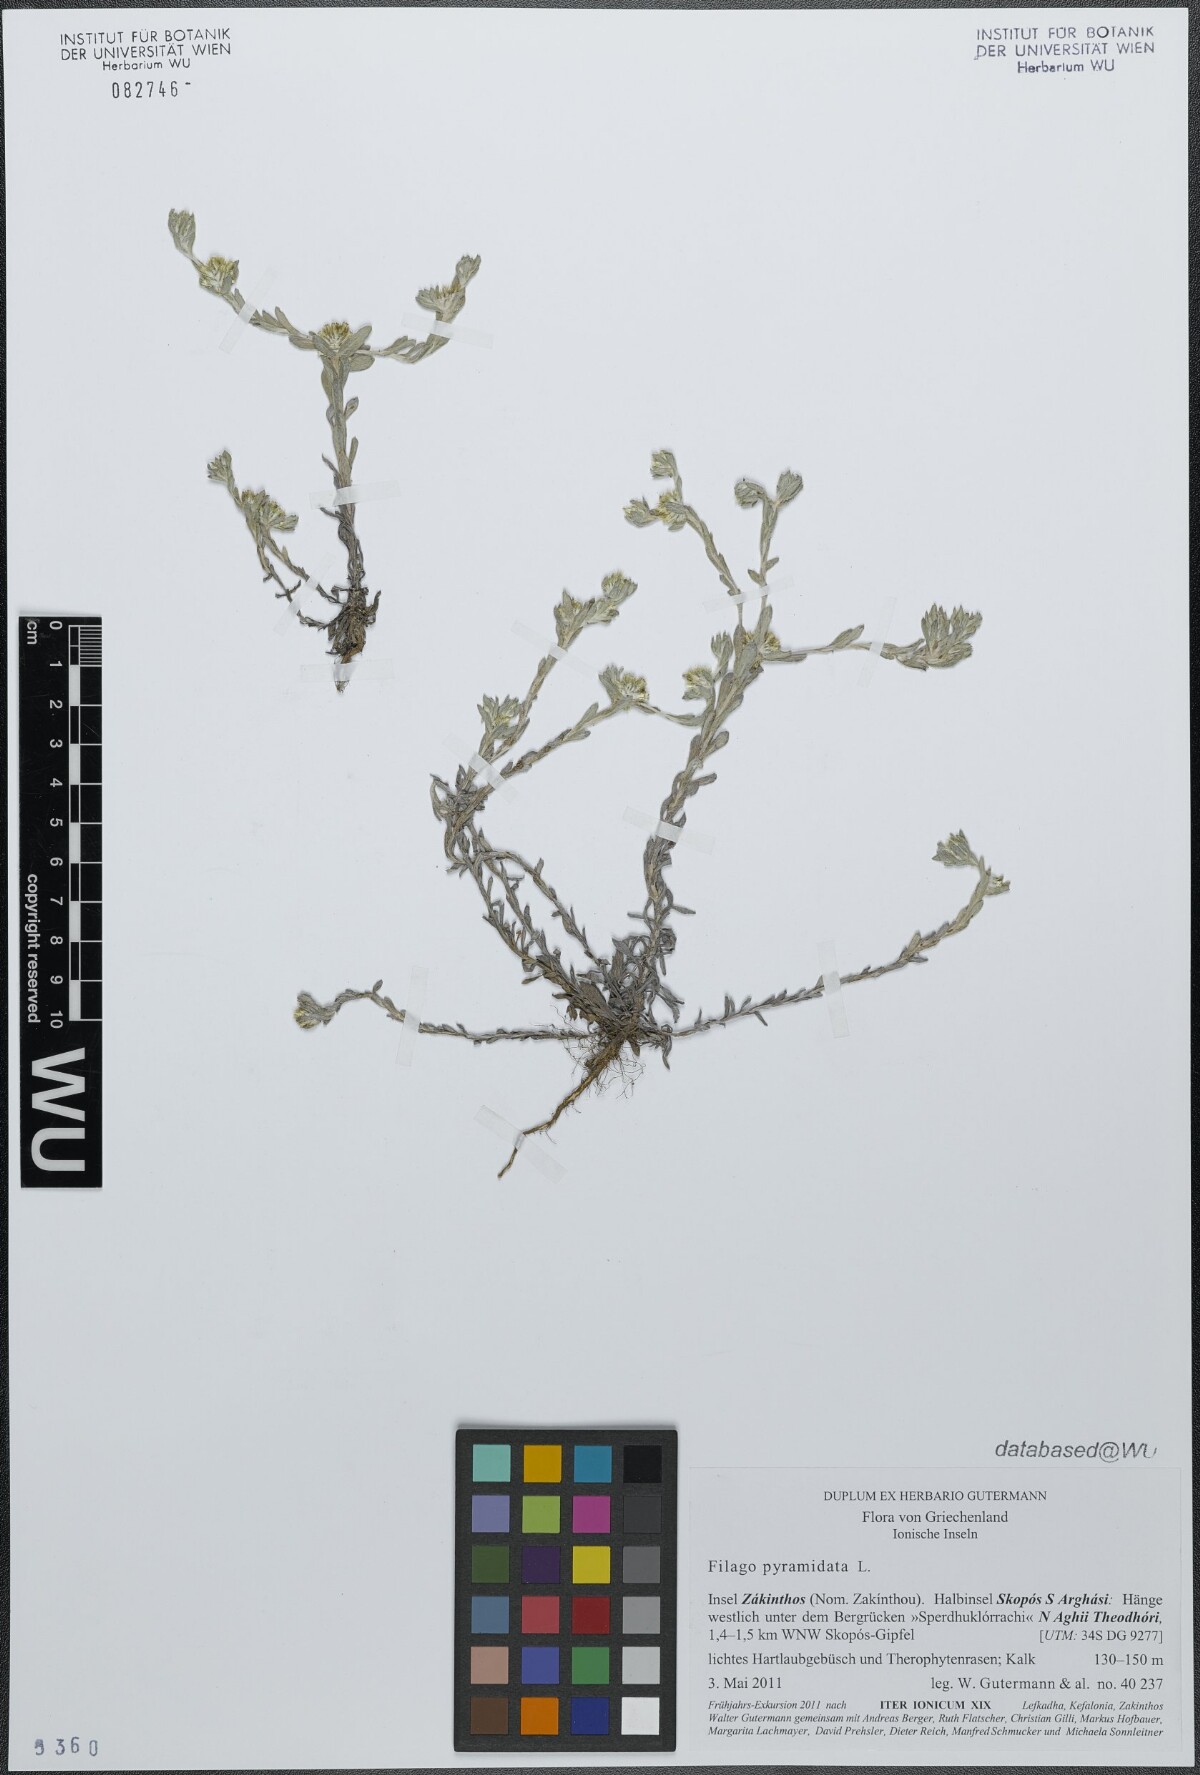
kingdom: Plantae
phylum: Tracheophyta
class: Magnoliopsida
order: Asterales
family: Asteraceae
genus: Filago
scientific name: Filago pyramidata
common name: Broad-leaved cudweed
